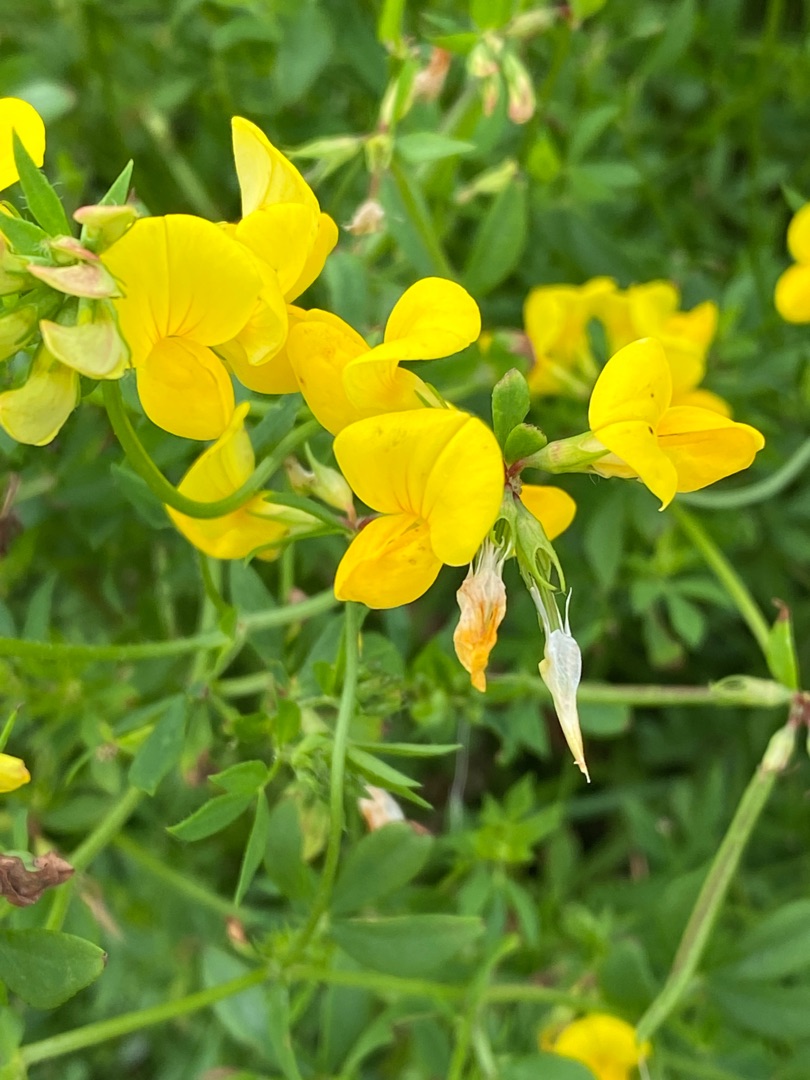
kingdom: Plantae
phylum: Tracheophyta
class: Magnoliopsida
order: Fabales
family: Fabaceae
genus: Lotus
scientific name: Lotus corniculatus
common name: Almindelig kællingetand
